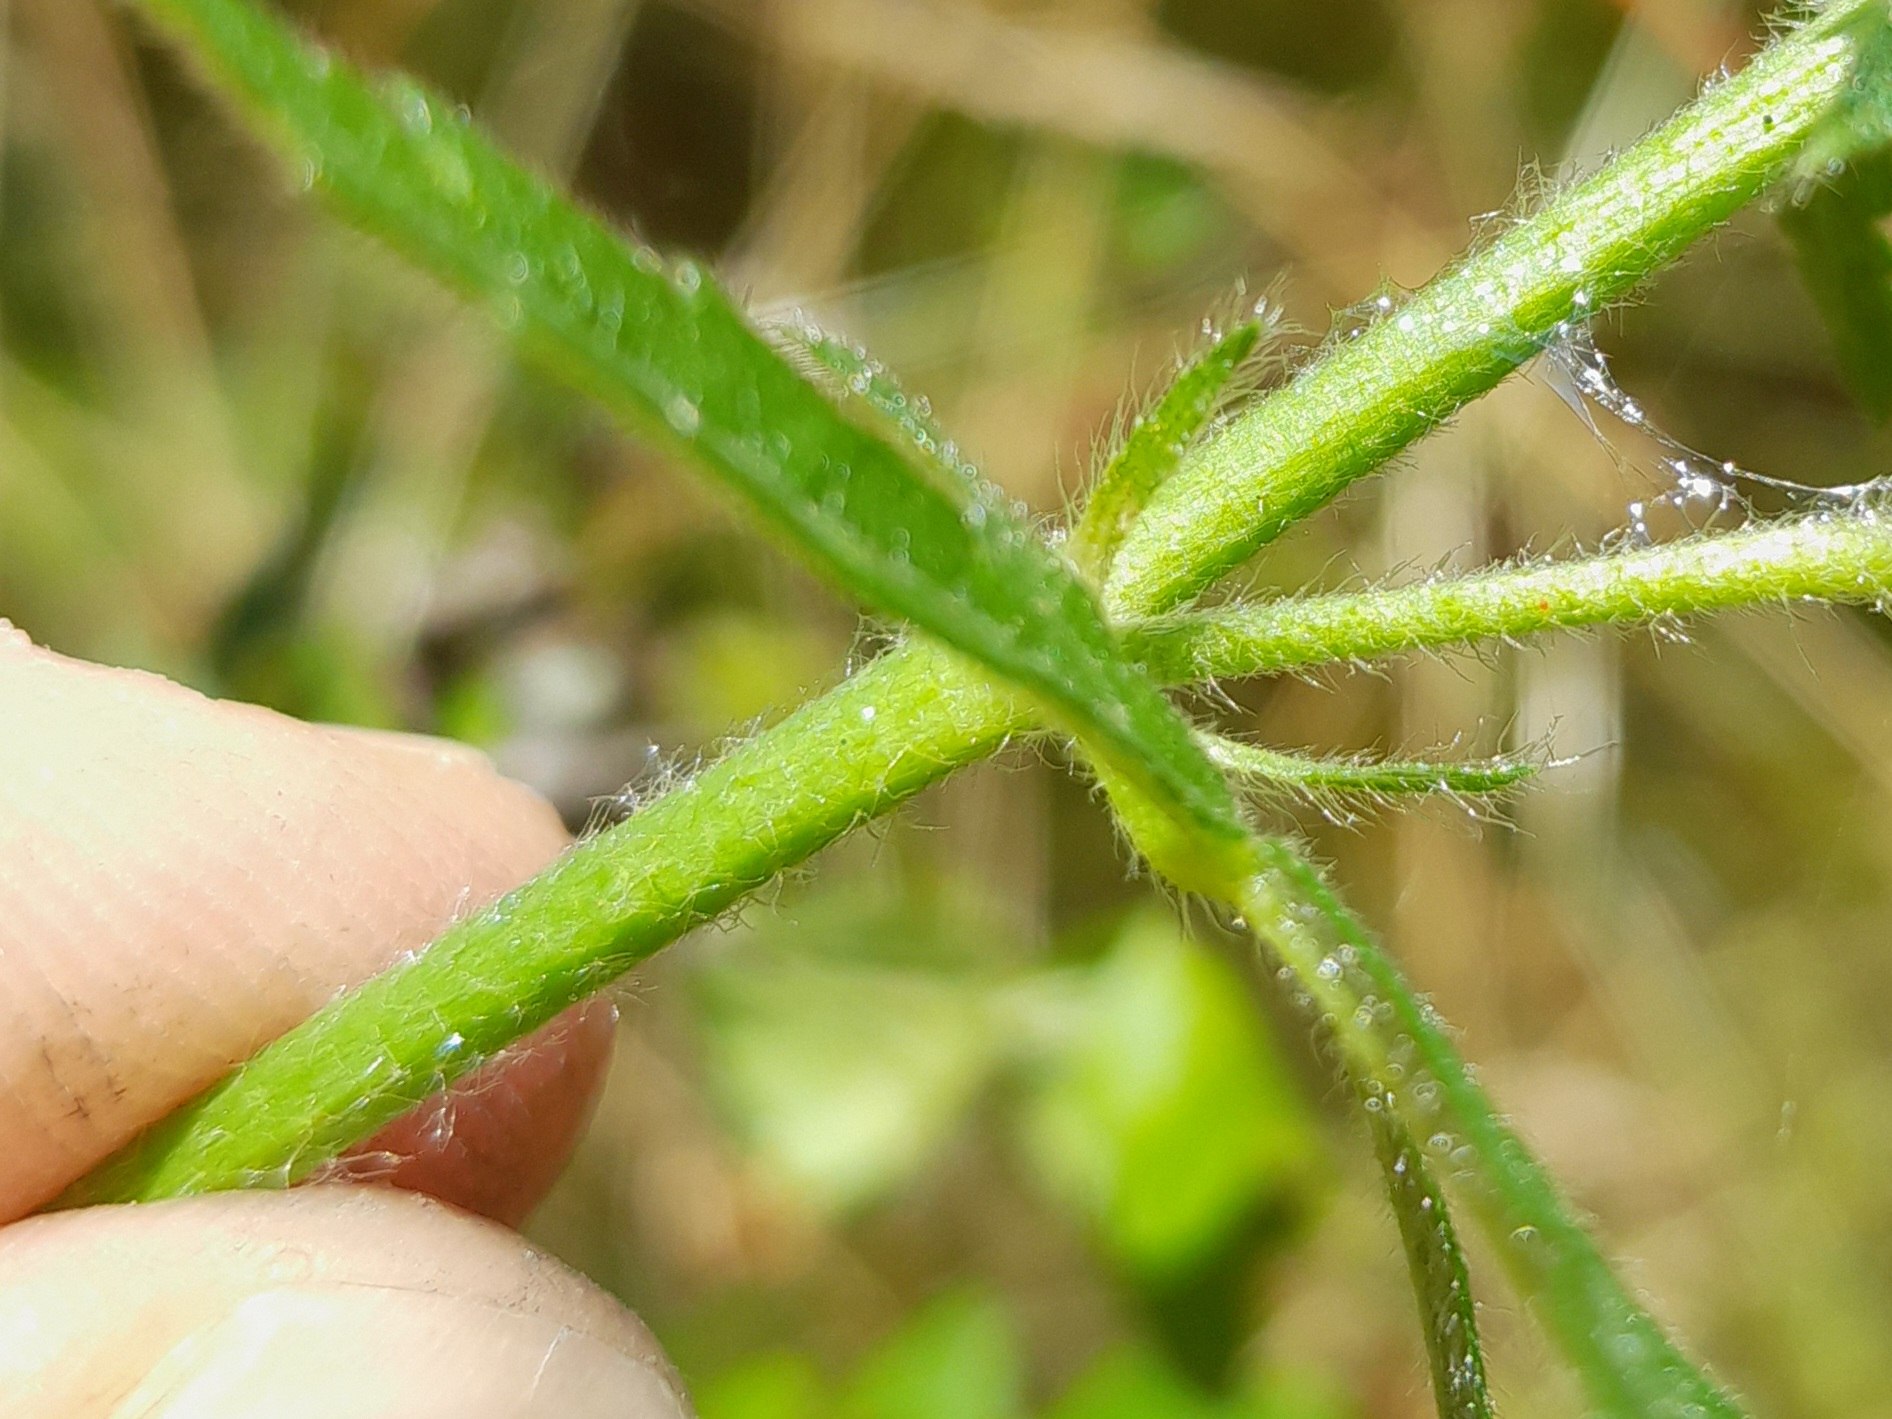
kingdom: Plantae
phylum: Tracheophyta
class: Magnoliopsida
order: Malvales
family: Malvaceae
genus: Malva
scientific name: Malva alcea
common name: Rosen-katost
